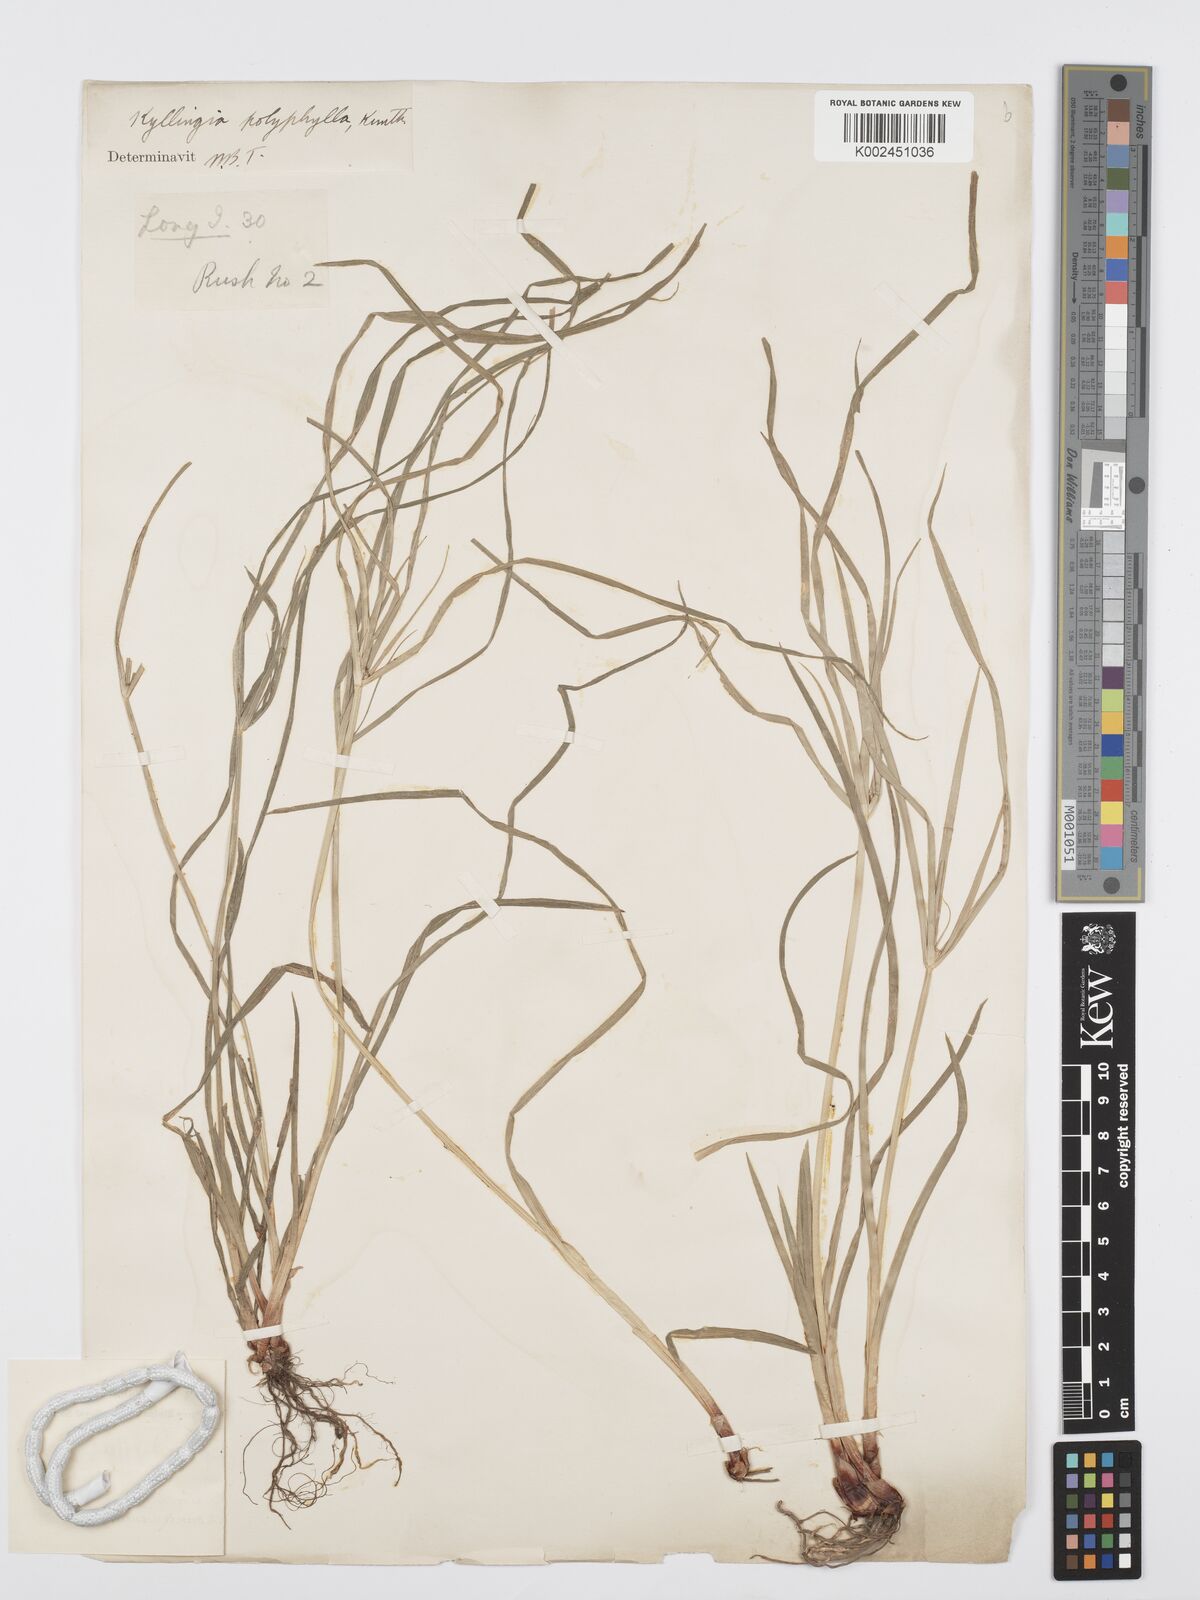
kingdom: Plantae
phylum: Tracheophyta
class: Liliopsida
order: Poales
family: Cyperaceae
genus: Cyperus
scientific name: Cyperus steudneri
